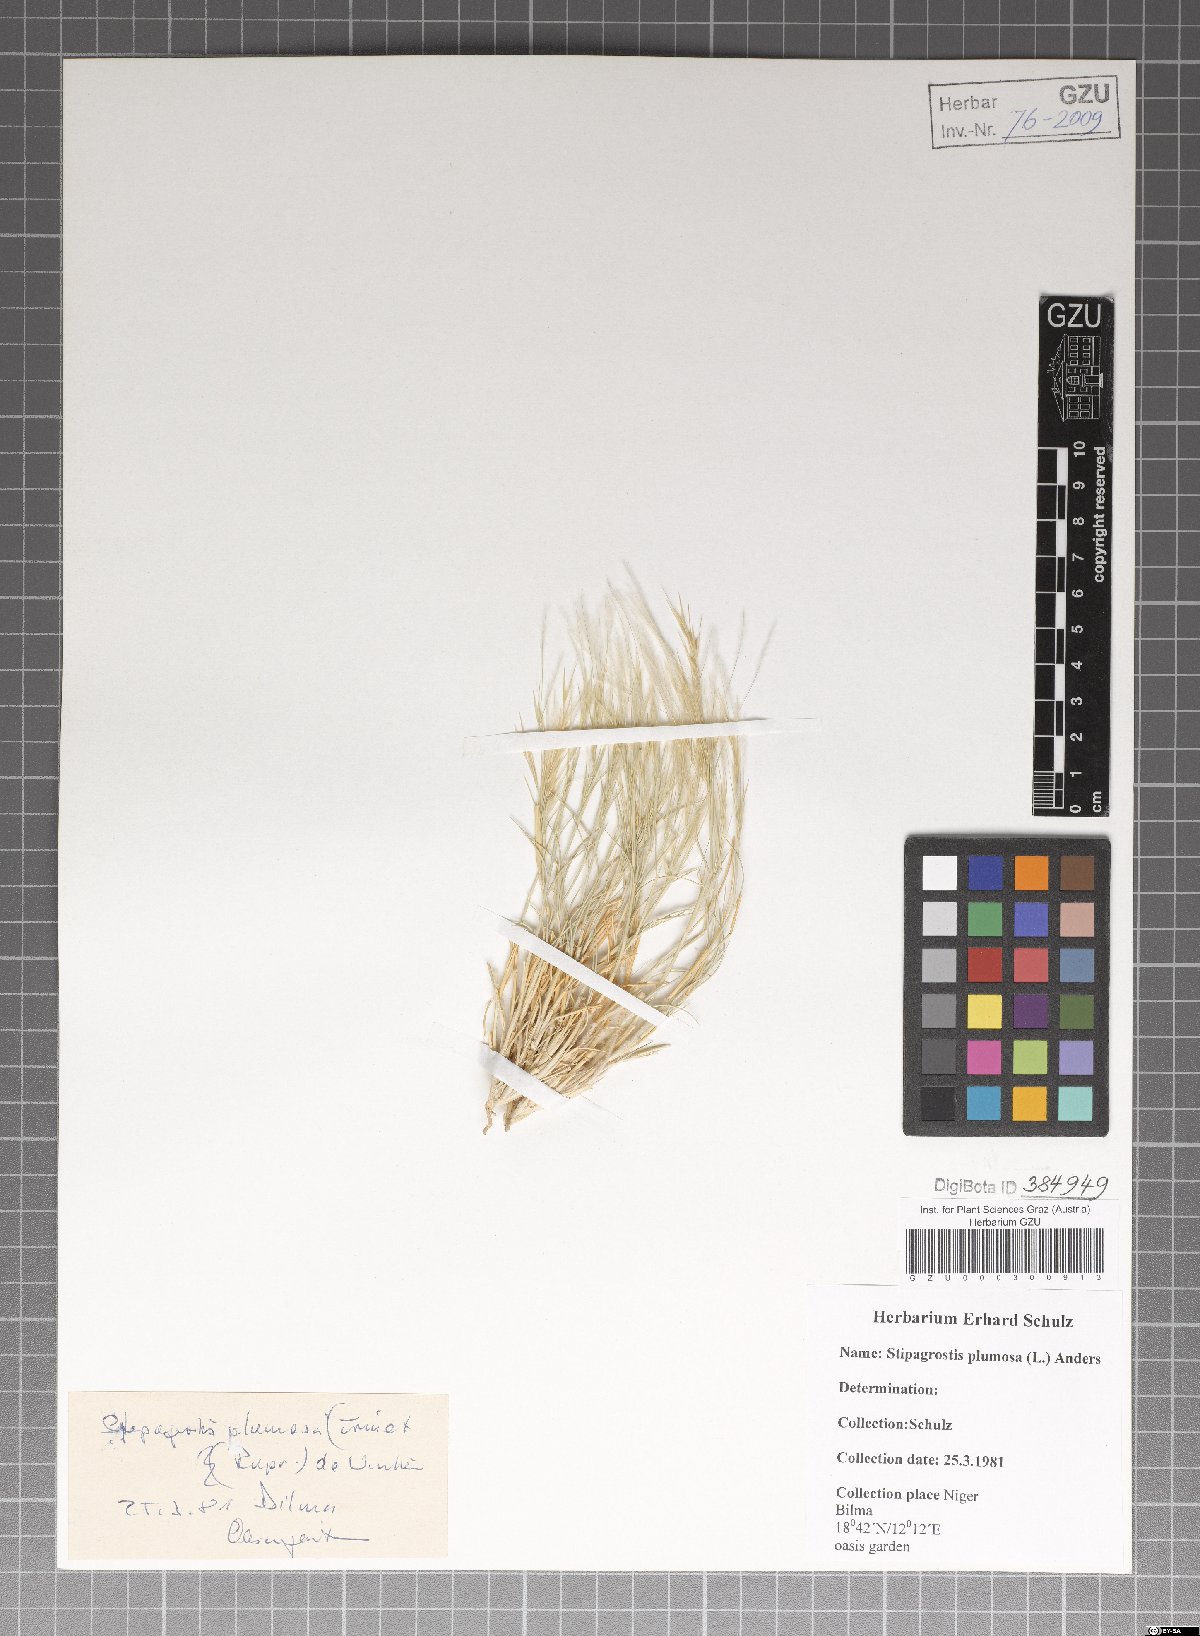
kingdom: Plantae
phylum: Tracheophyta
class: Liliopsida
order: Poales
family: Poaceae
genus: Stipagrostis
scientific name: Stipagrostis plumosa
